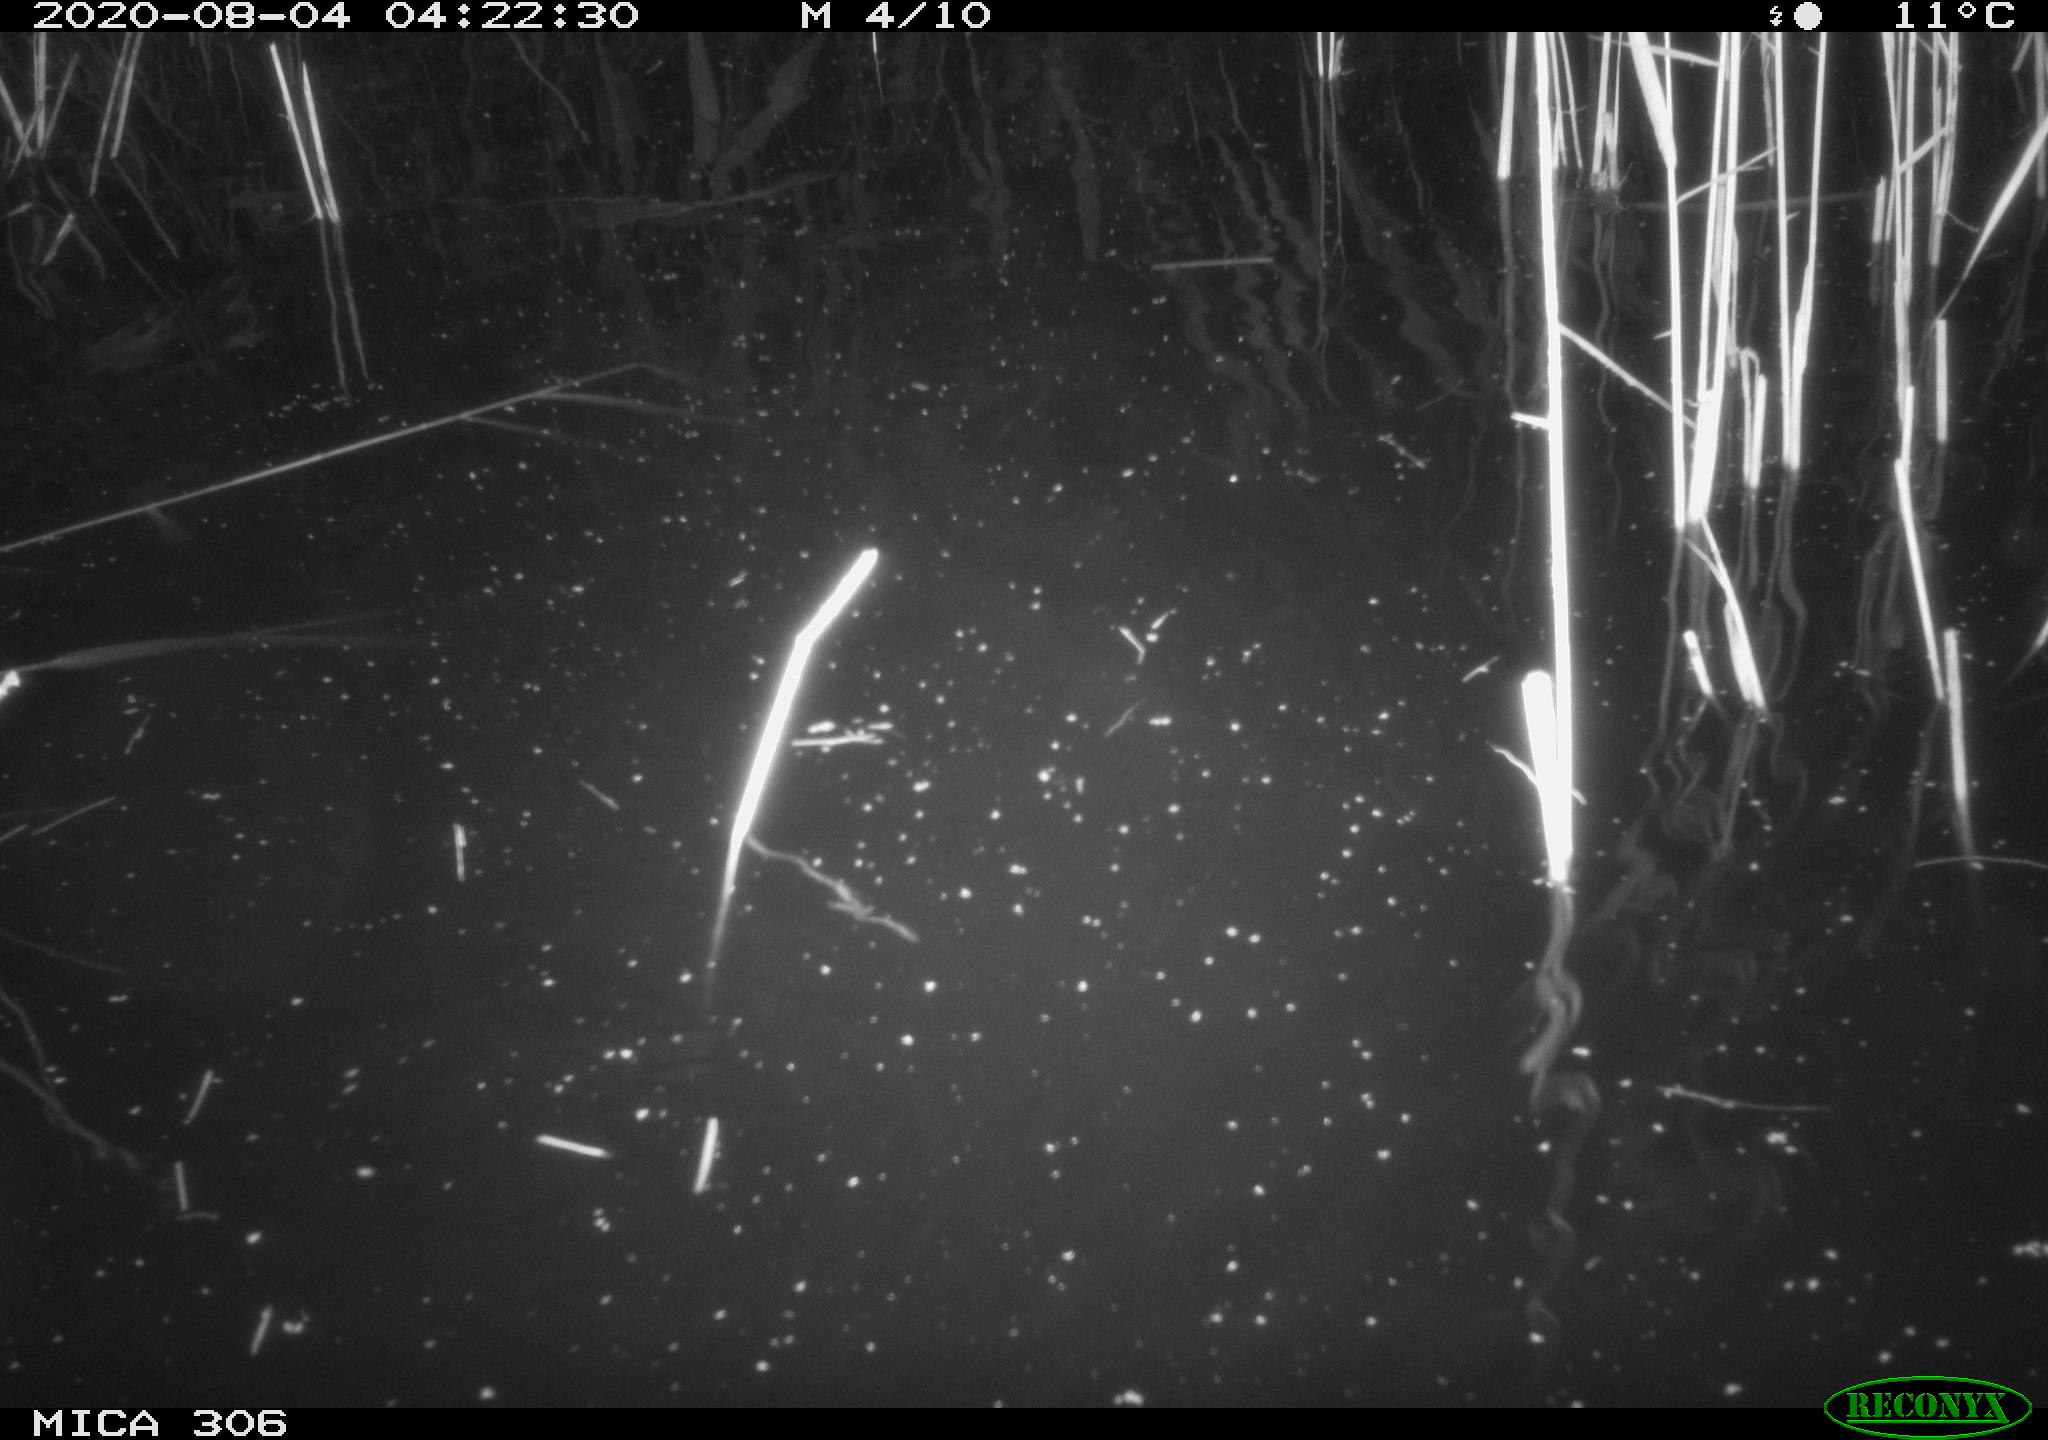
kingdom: Animalia
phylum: Chordata
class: Mammalia
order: Rodentia
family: Cricetidae
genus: Ondatra
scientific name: Ondatra zibethicus
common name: Muskrat
